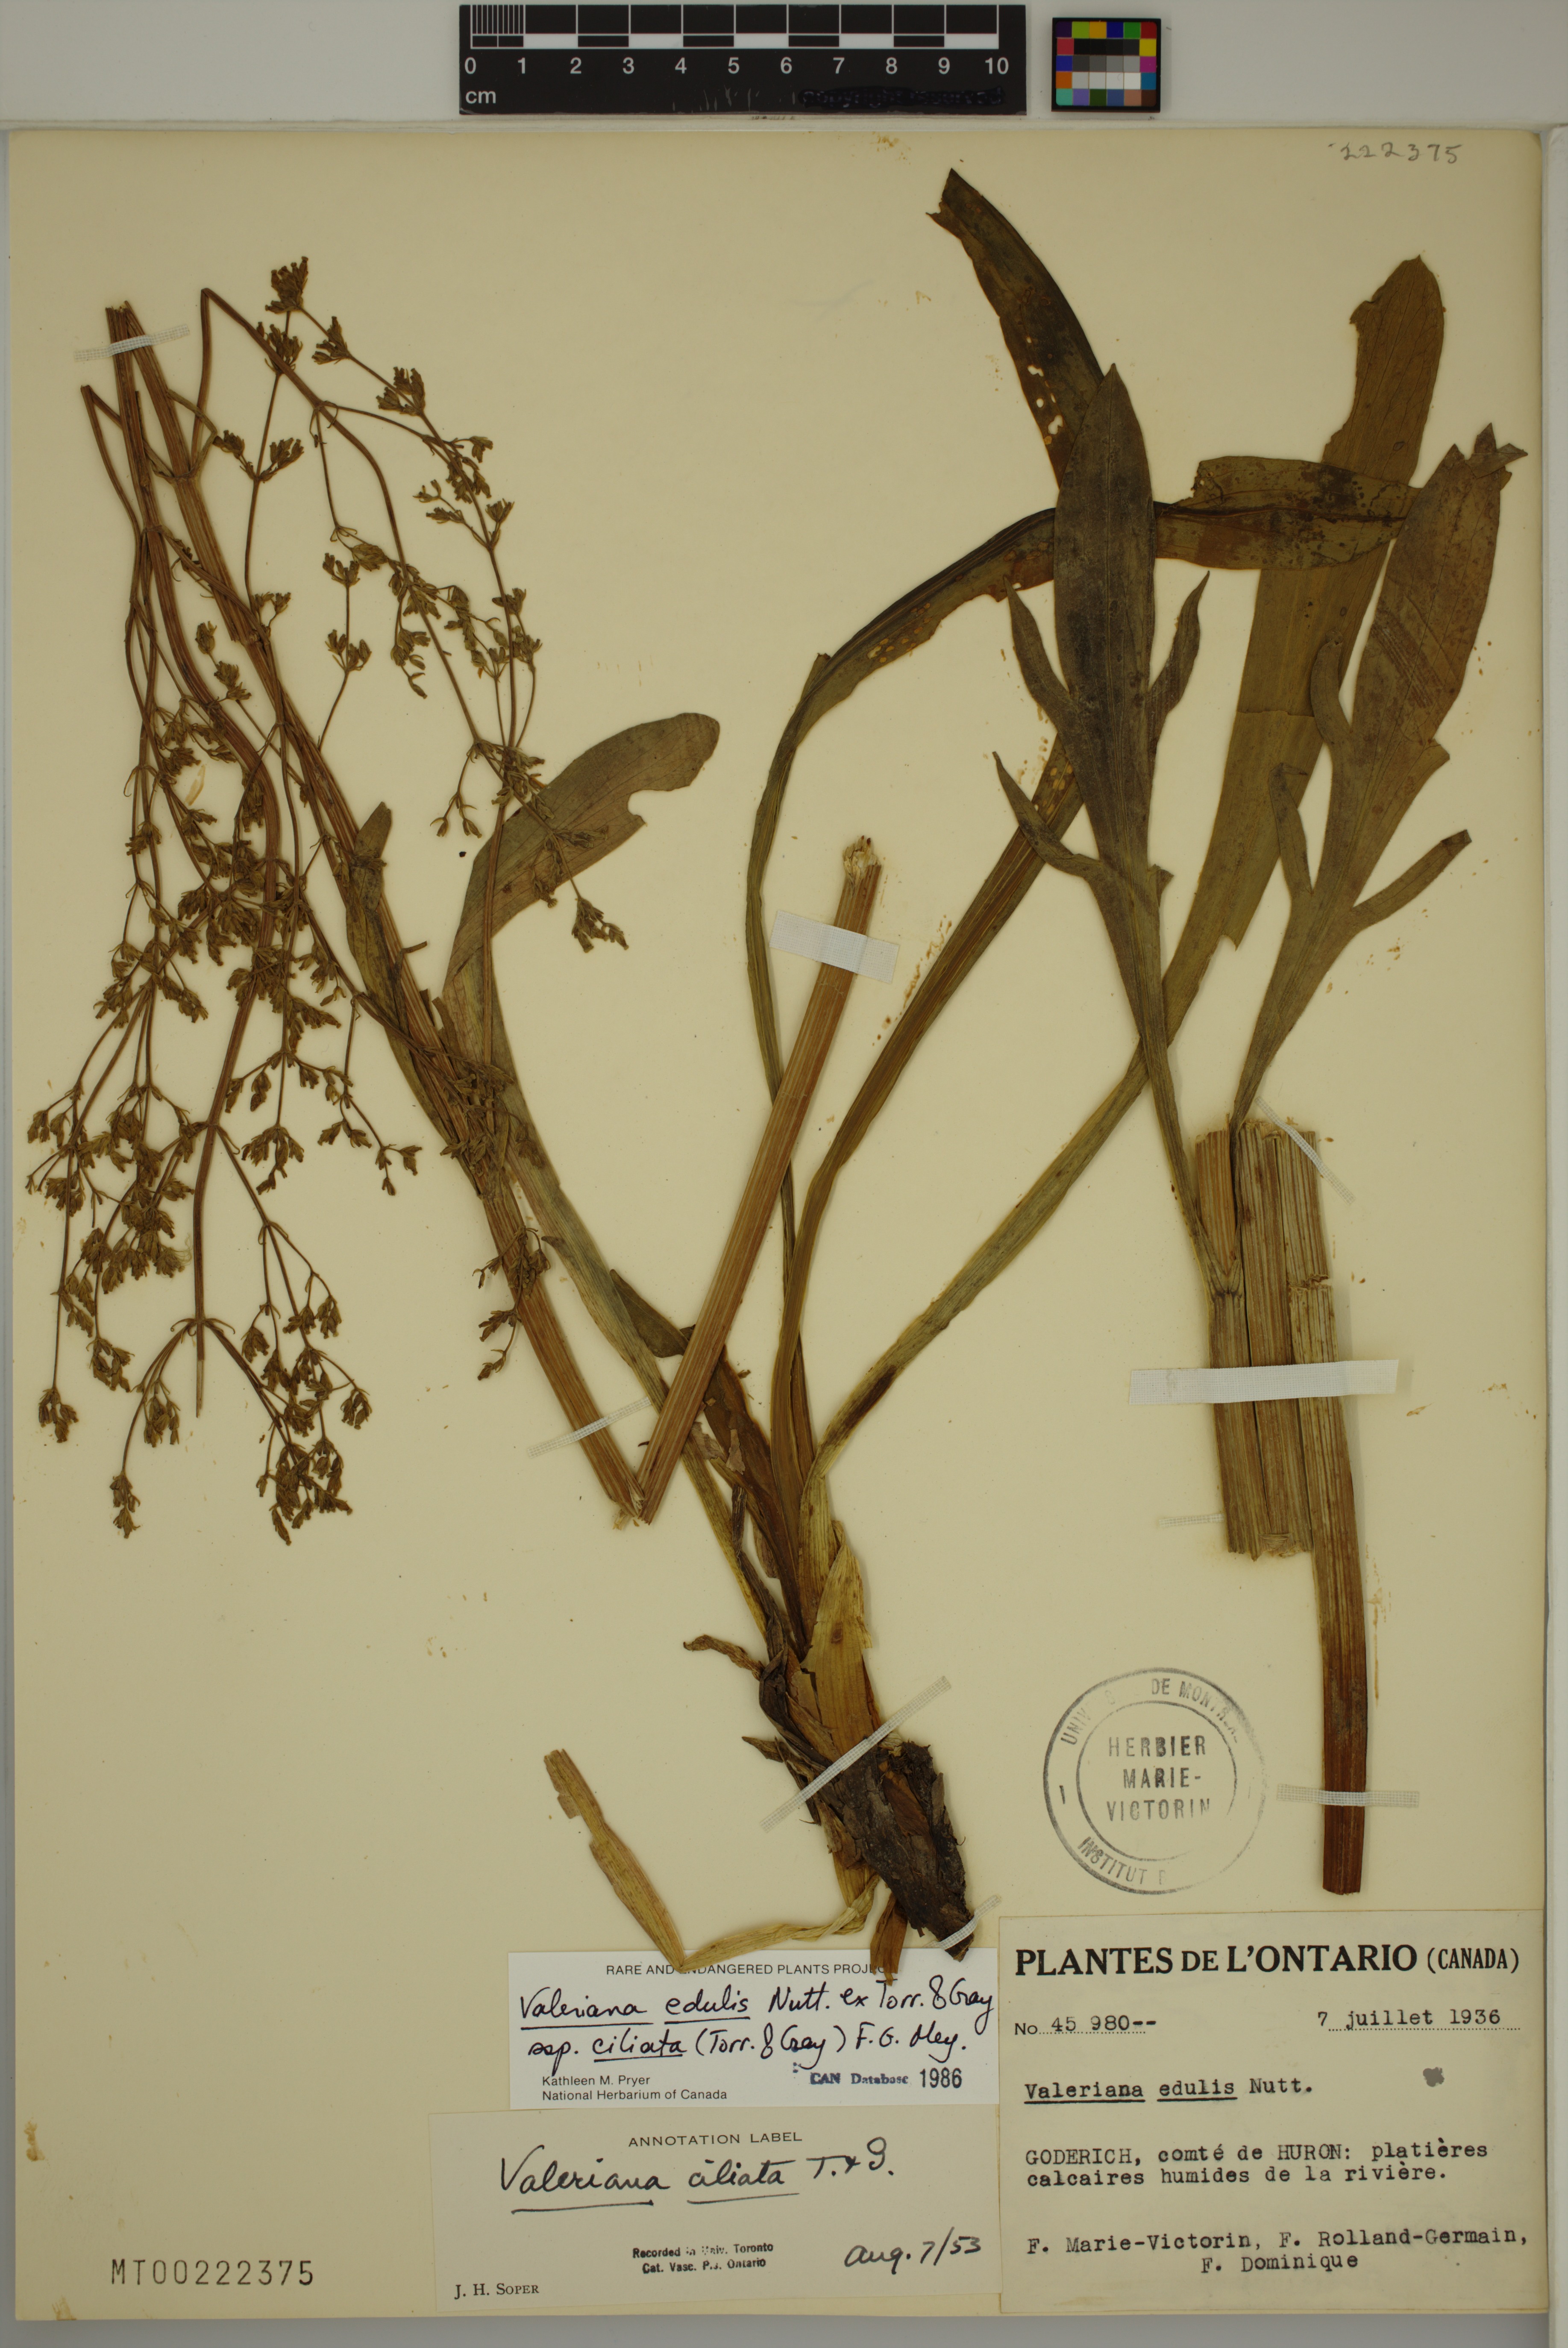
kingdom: Plantae
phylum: Tracheophyta
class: Magnoliopsida
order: Dipsacales
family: Caprifoliaceae
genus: Valeriana
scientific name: Valeriana edulis
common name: Taproot valerian
